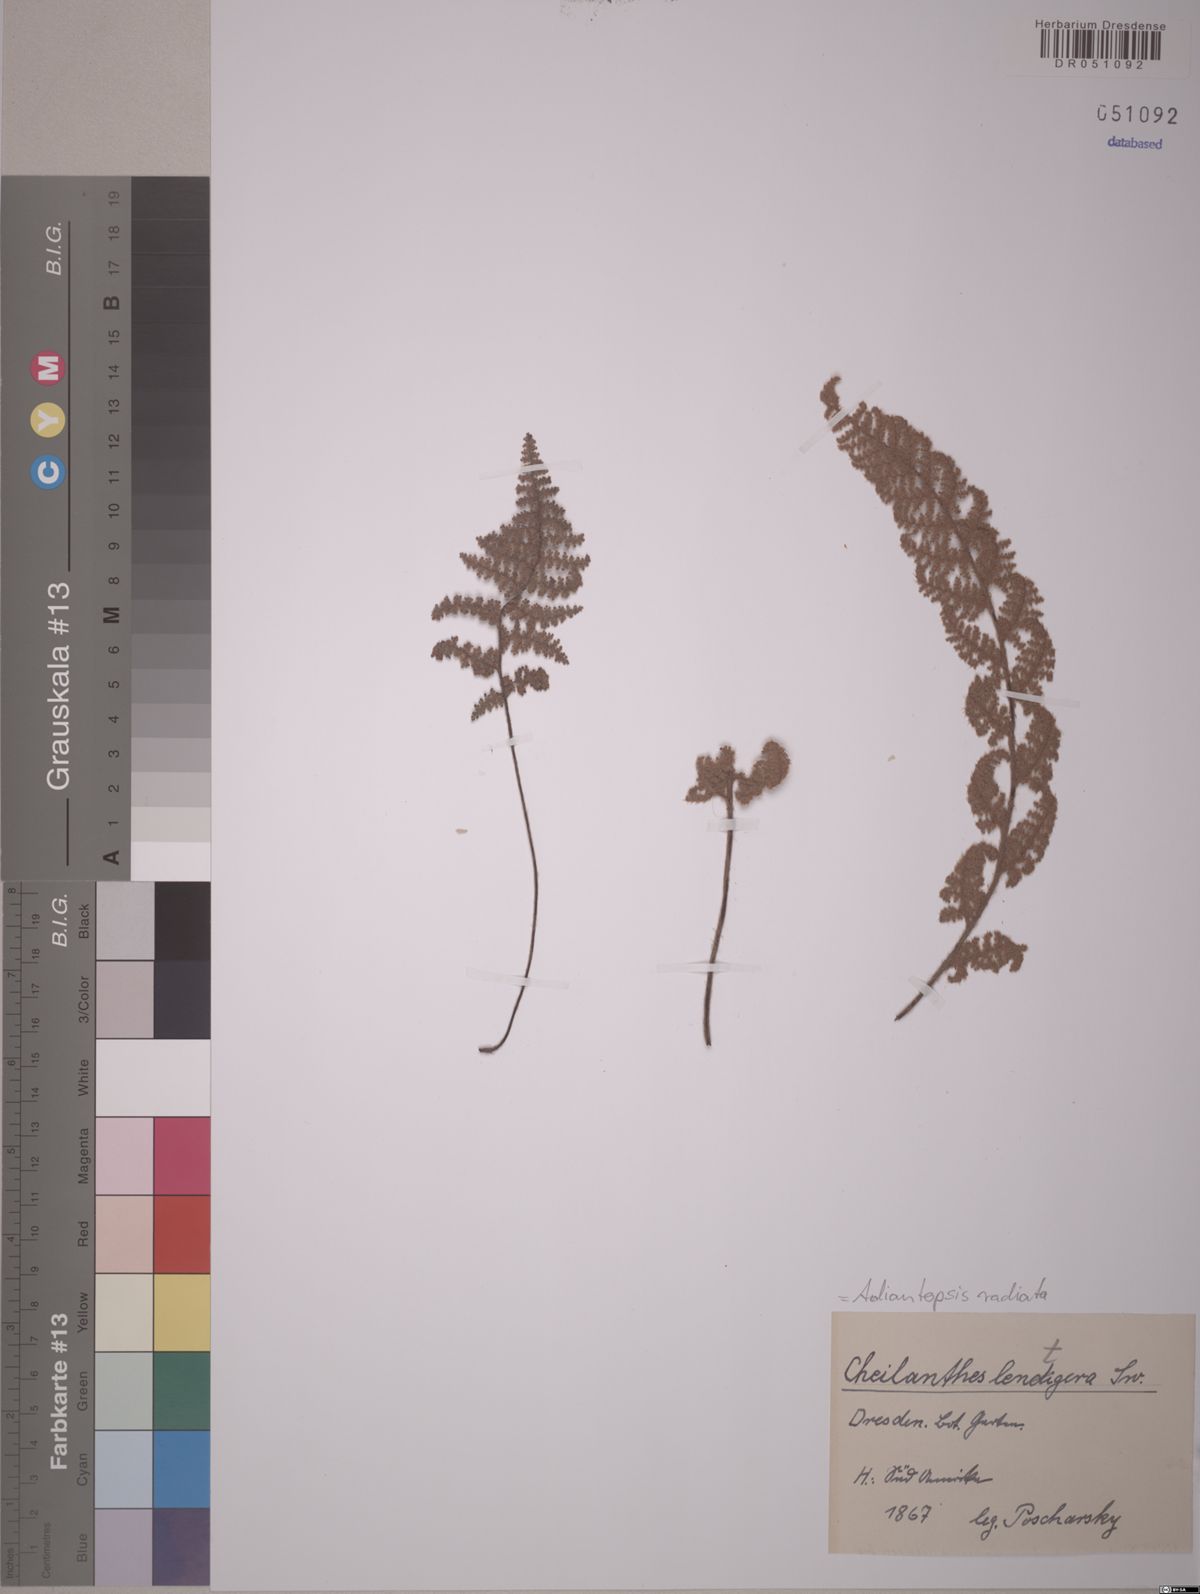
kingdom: Plantae
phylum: Tracheophyta
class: Polypodiopsida
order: Polypodiales
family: Pteridaceae
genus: Myriopteris
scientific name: Myriopteris lendigera
